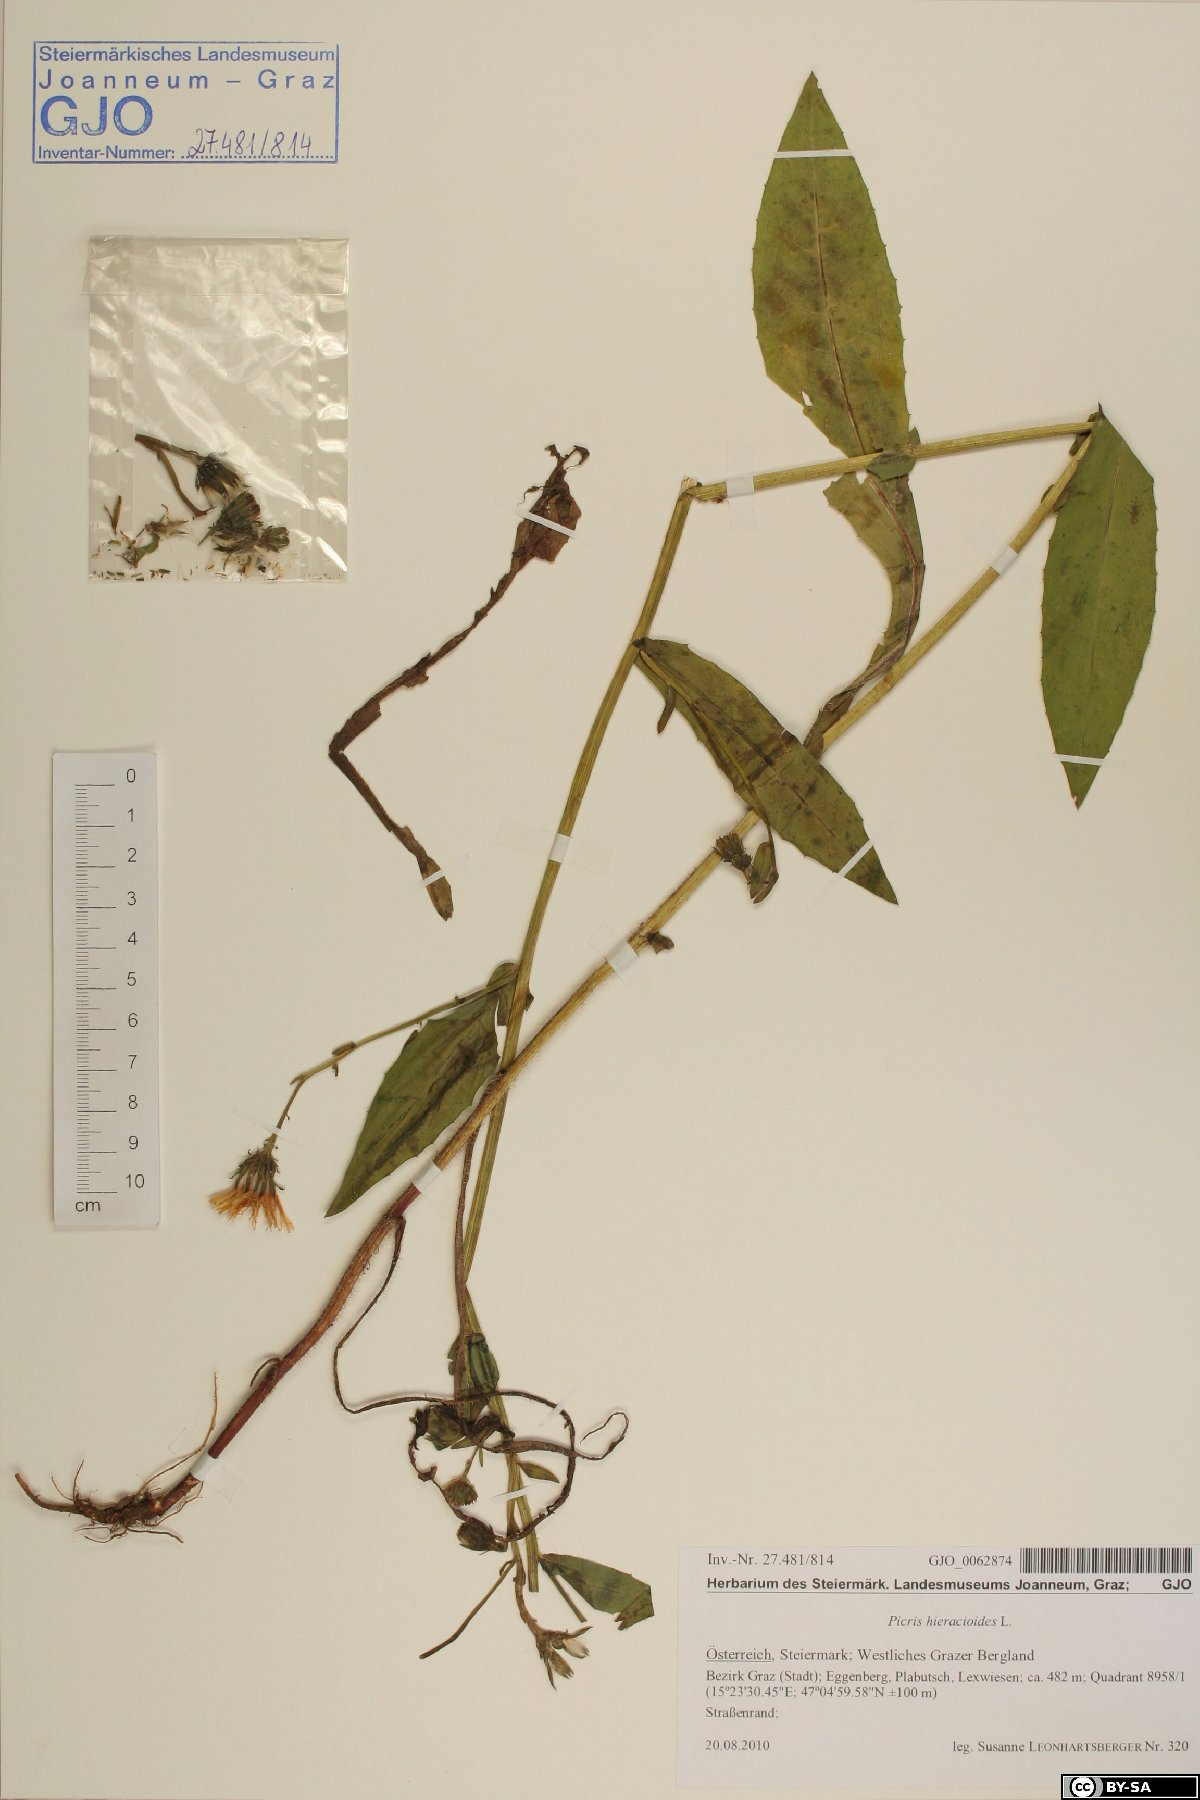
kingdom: Plantae
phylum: Tracheophyta
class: Magnoliopsida
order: Asterales
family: Asteraceae
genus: Picris
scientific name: Picris hieracioides
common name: Hawkweed oxtongue
